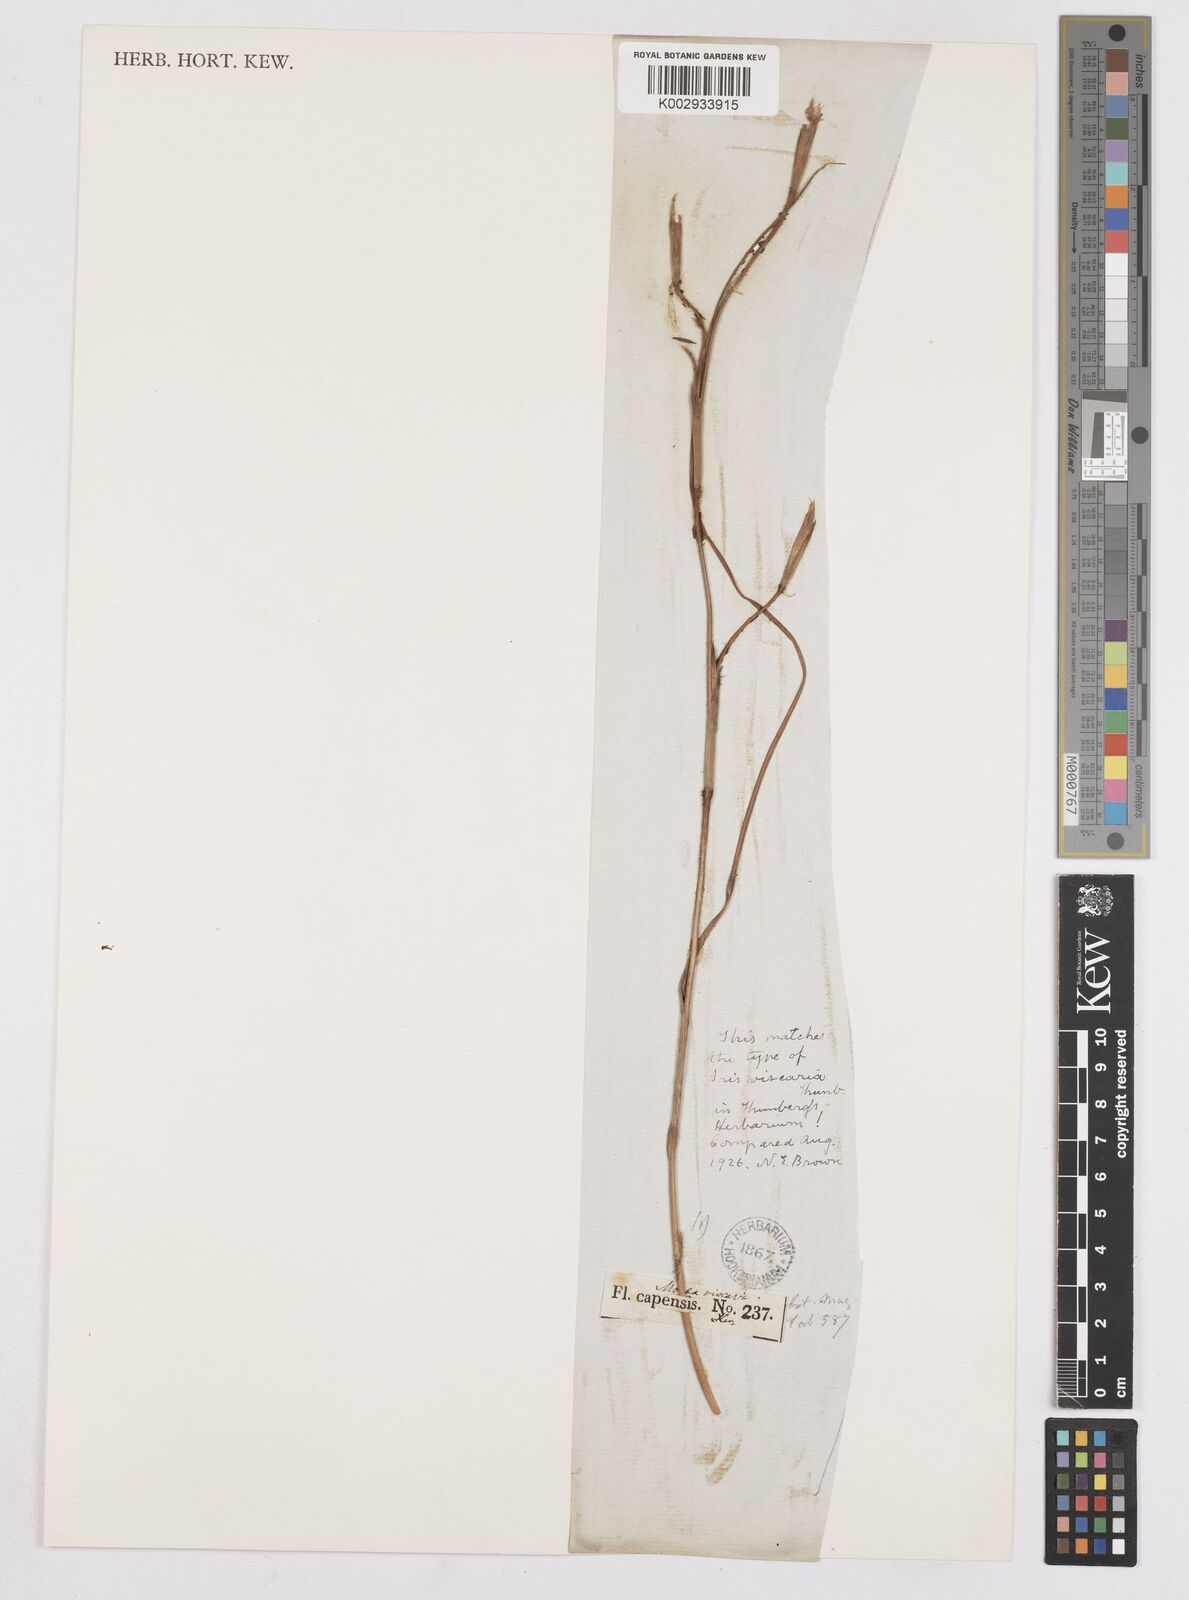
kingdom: Plantae
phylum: Tracheophyta
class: Liliopsida
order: Asparagales
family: Iridaceae
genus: Moraea
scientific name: Moraea inconspicua
